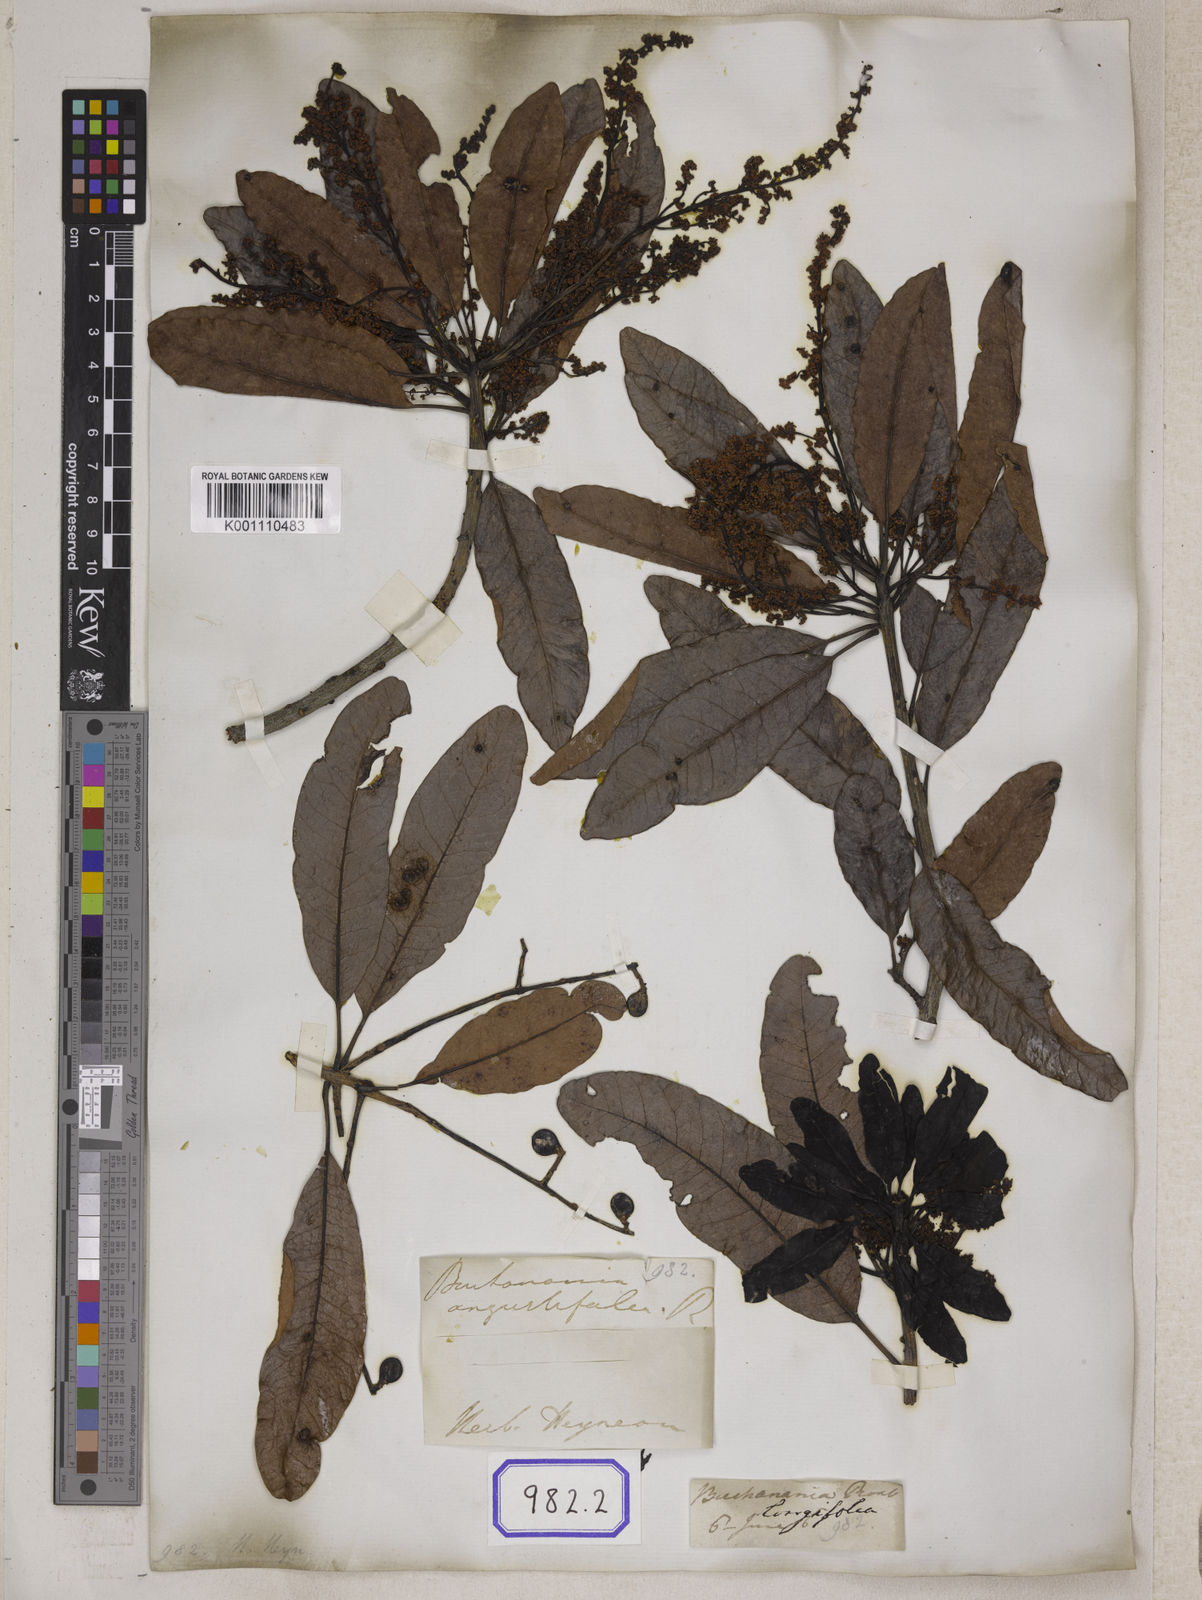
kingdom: Plantae
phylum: Tracheophyta
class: Magnoliopsida
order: Sapindales
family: Anacardiaceae
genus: Buchanania
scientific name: Buchanania axillaris
